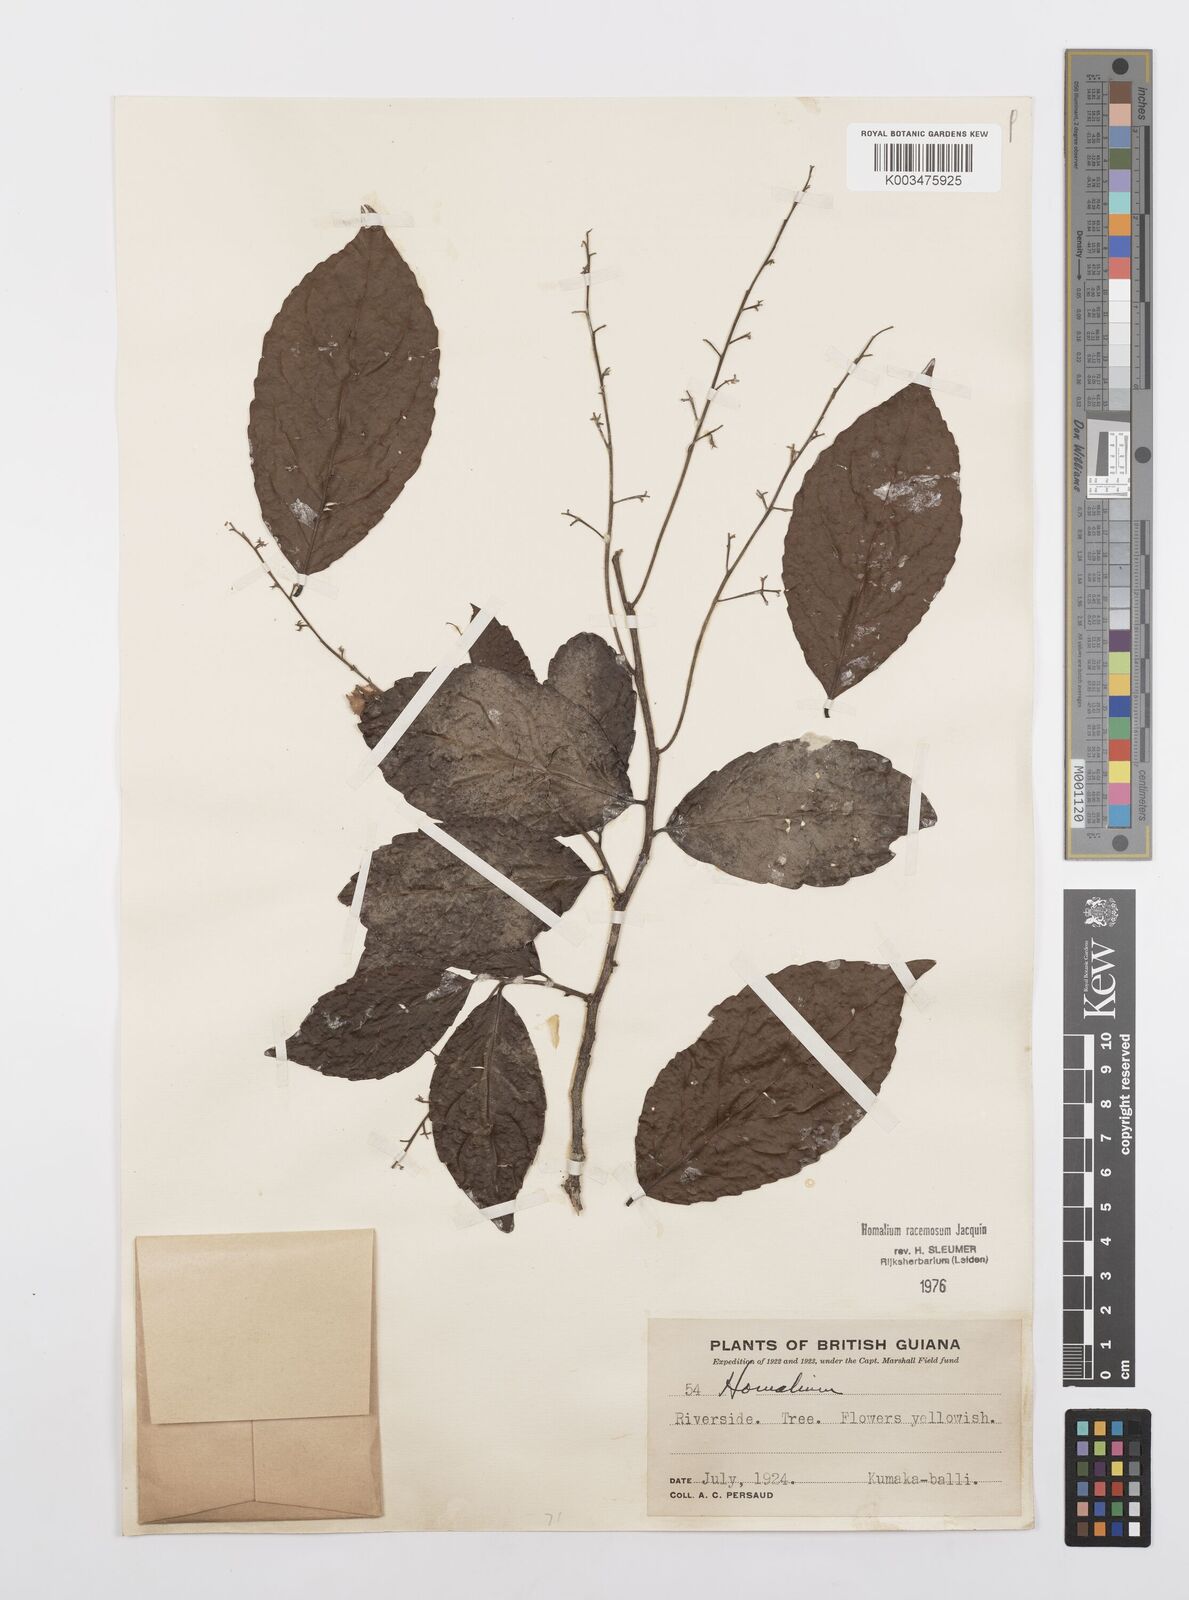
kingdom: Plantae
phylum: Tracheophyta
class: Magnoliopsida
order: Malpighiales
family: Salicaceae
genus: Homalium
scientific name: Homalium racemosum
